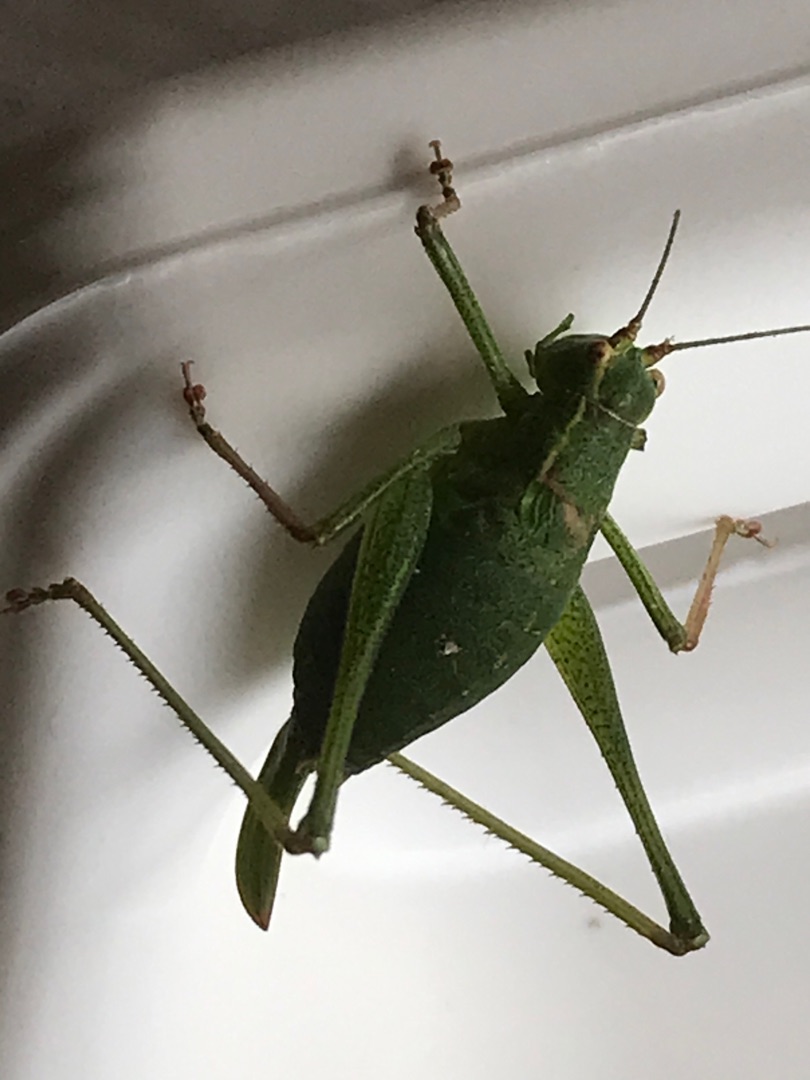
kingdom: Animalia
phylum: Arthropoda
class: Insecta
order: Orthoptera
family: Tettigoniidae
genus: Leptophyes
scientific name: Leptophyes punctatissima
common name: Krumknivgræshoppe
